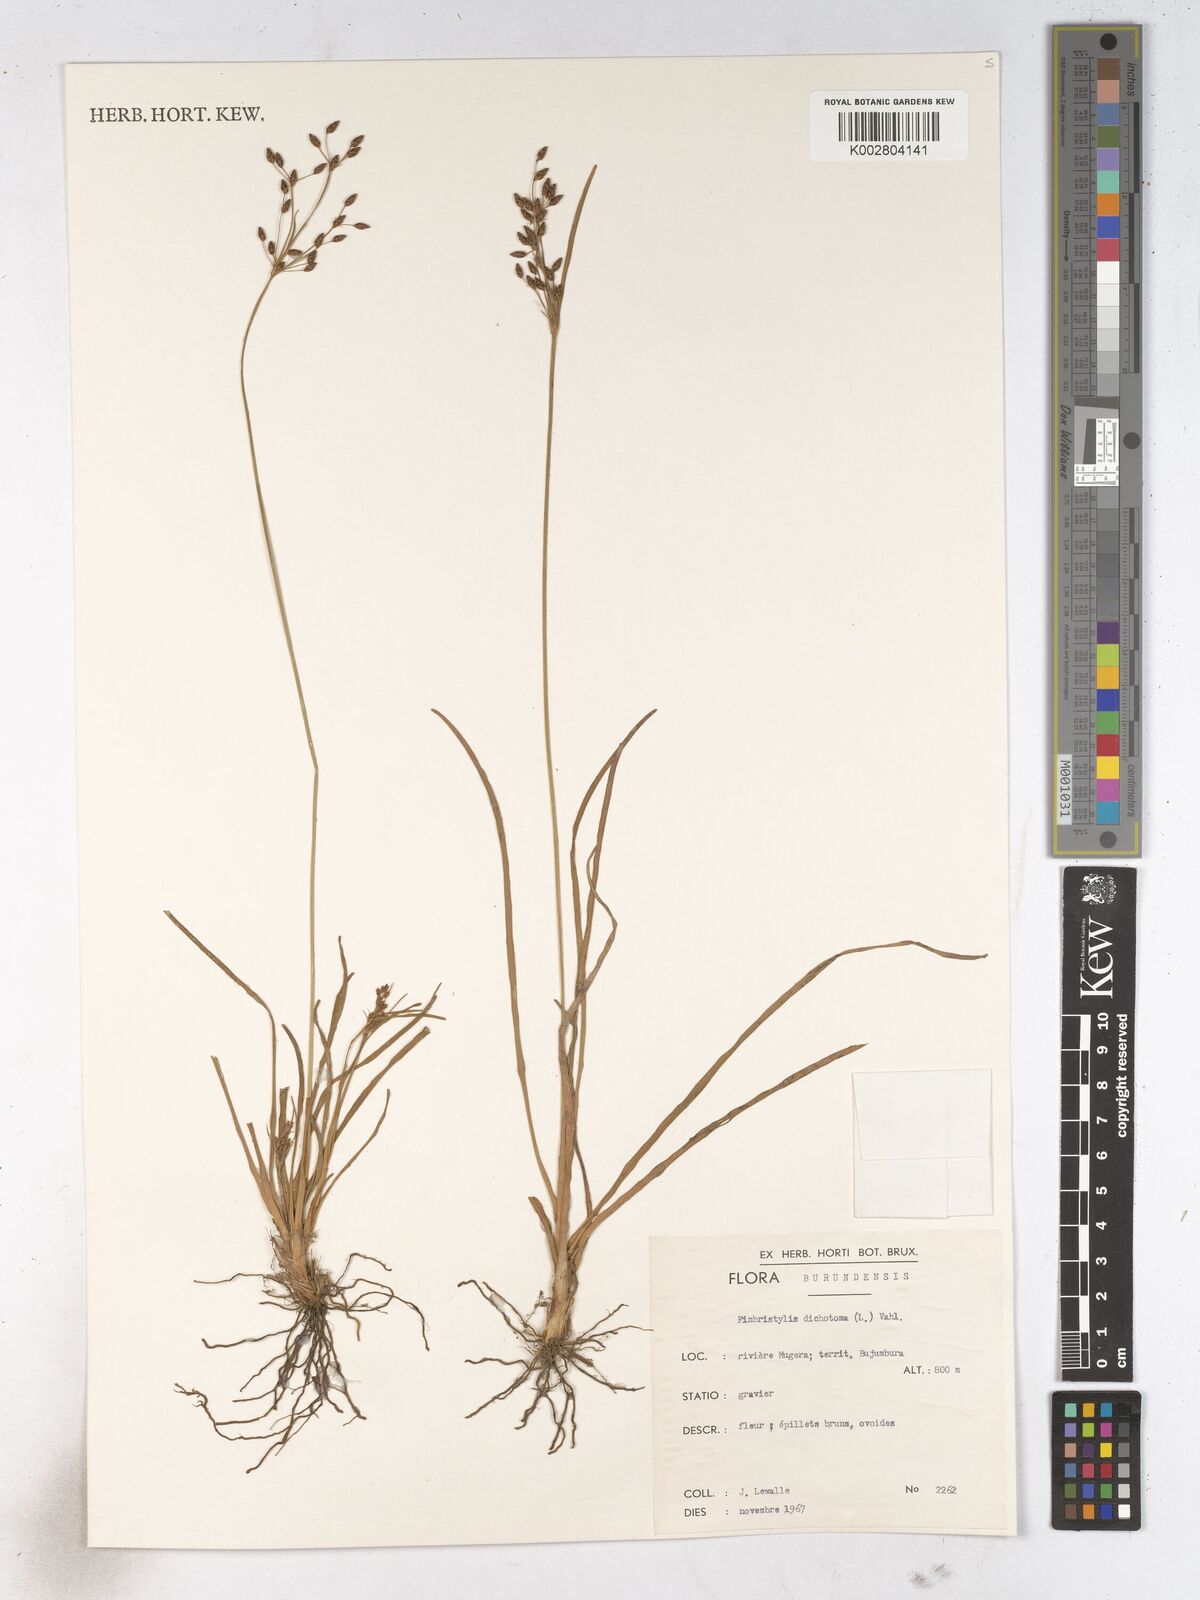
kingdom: Plantae
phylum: Tracheophyta
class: Liliopsida
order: Poales
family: Cyperaceae
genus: Fimbristylis
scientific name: Fimbristylis dichotoma
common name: Forked fimbry
